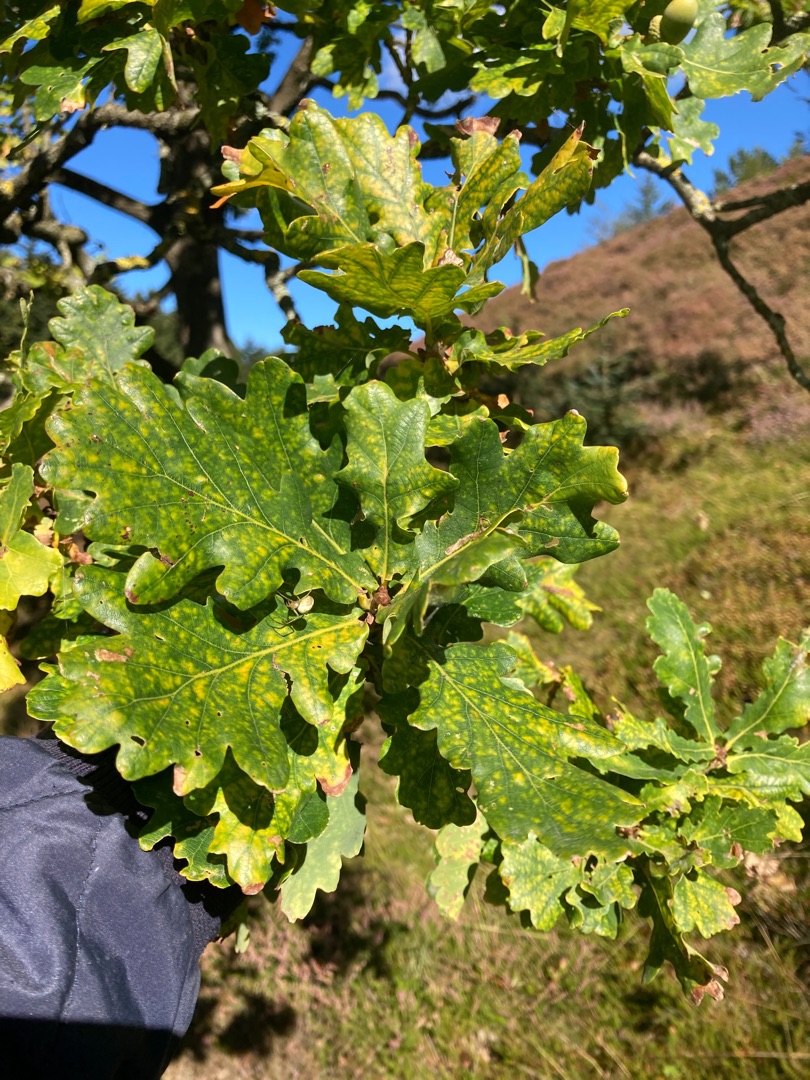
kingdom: Plantae
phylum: Tracheophyta
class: Magnoliopsida
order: Fagales
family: Fagaceae
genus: Quercus
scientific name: Quercus robur
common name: Stilk-eg/almindelig eg
